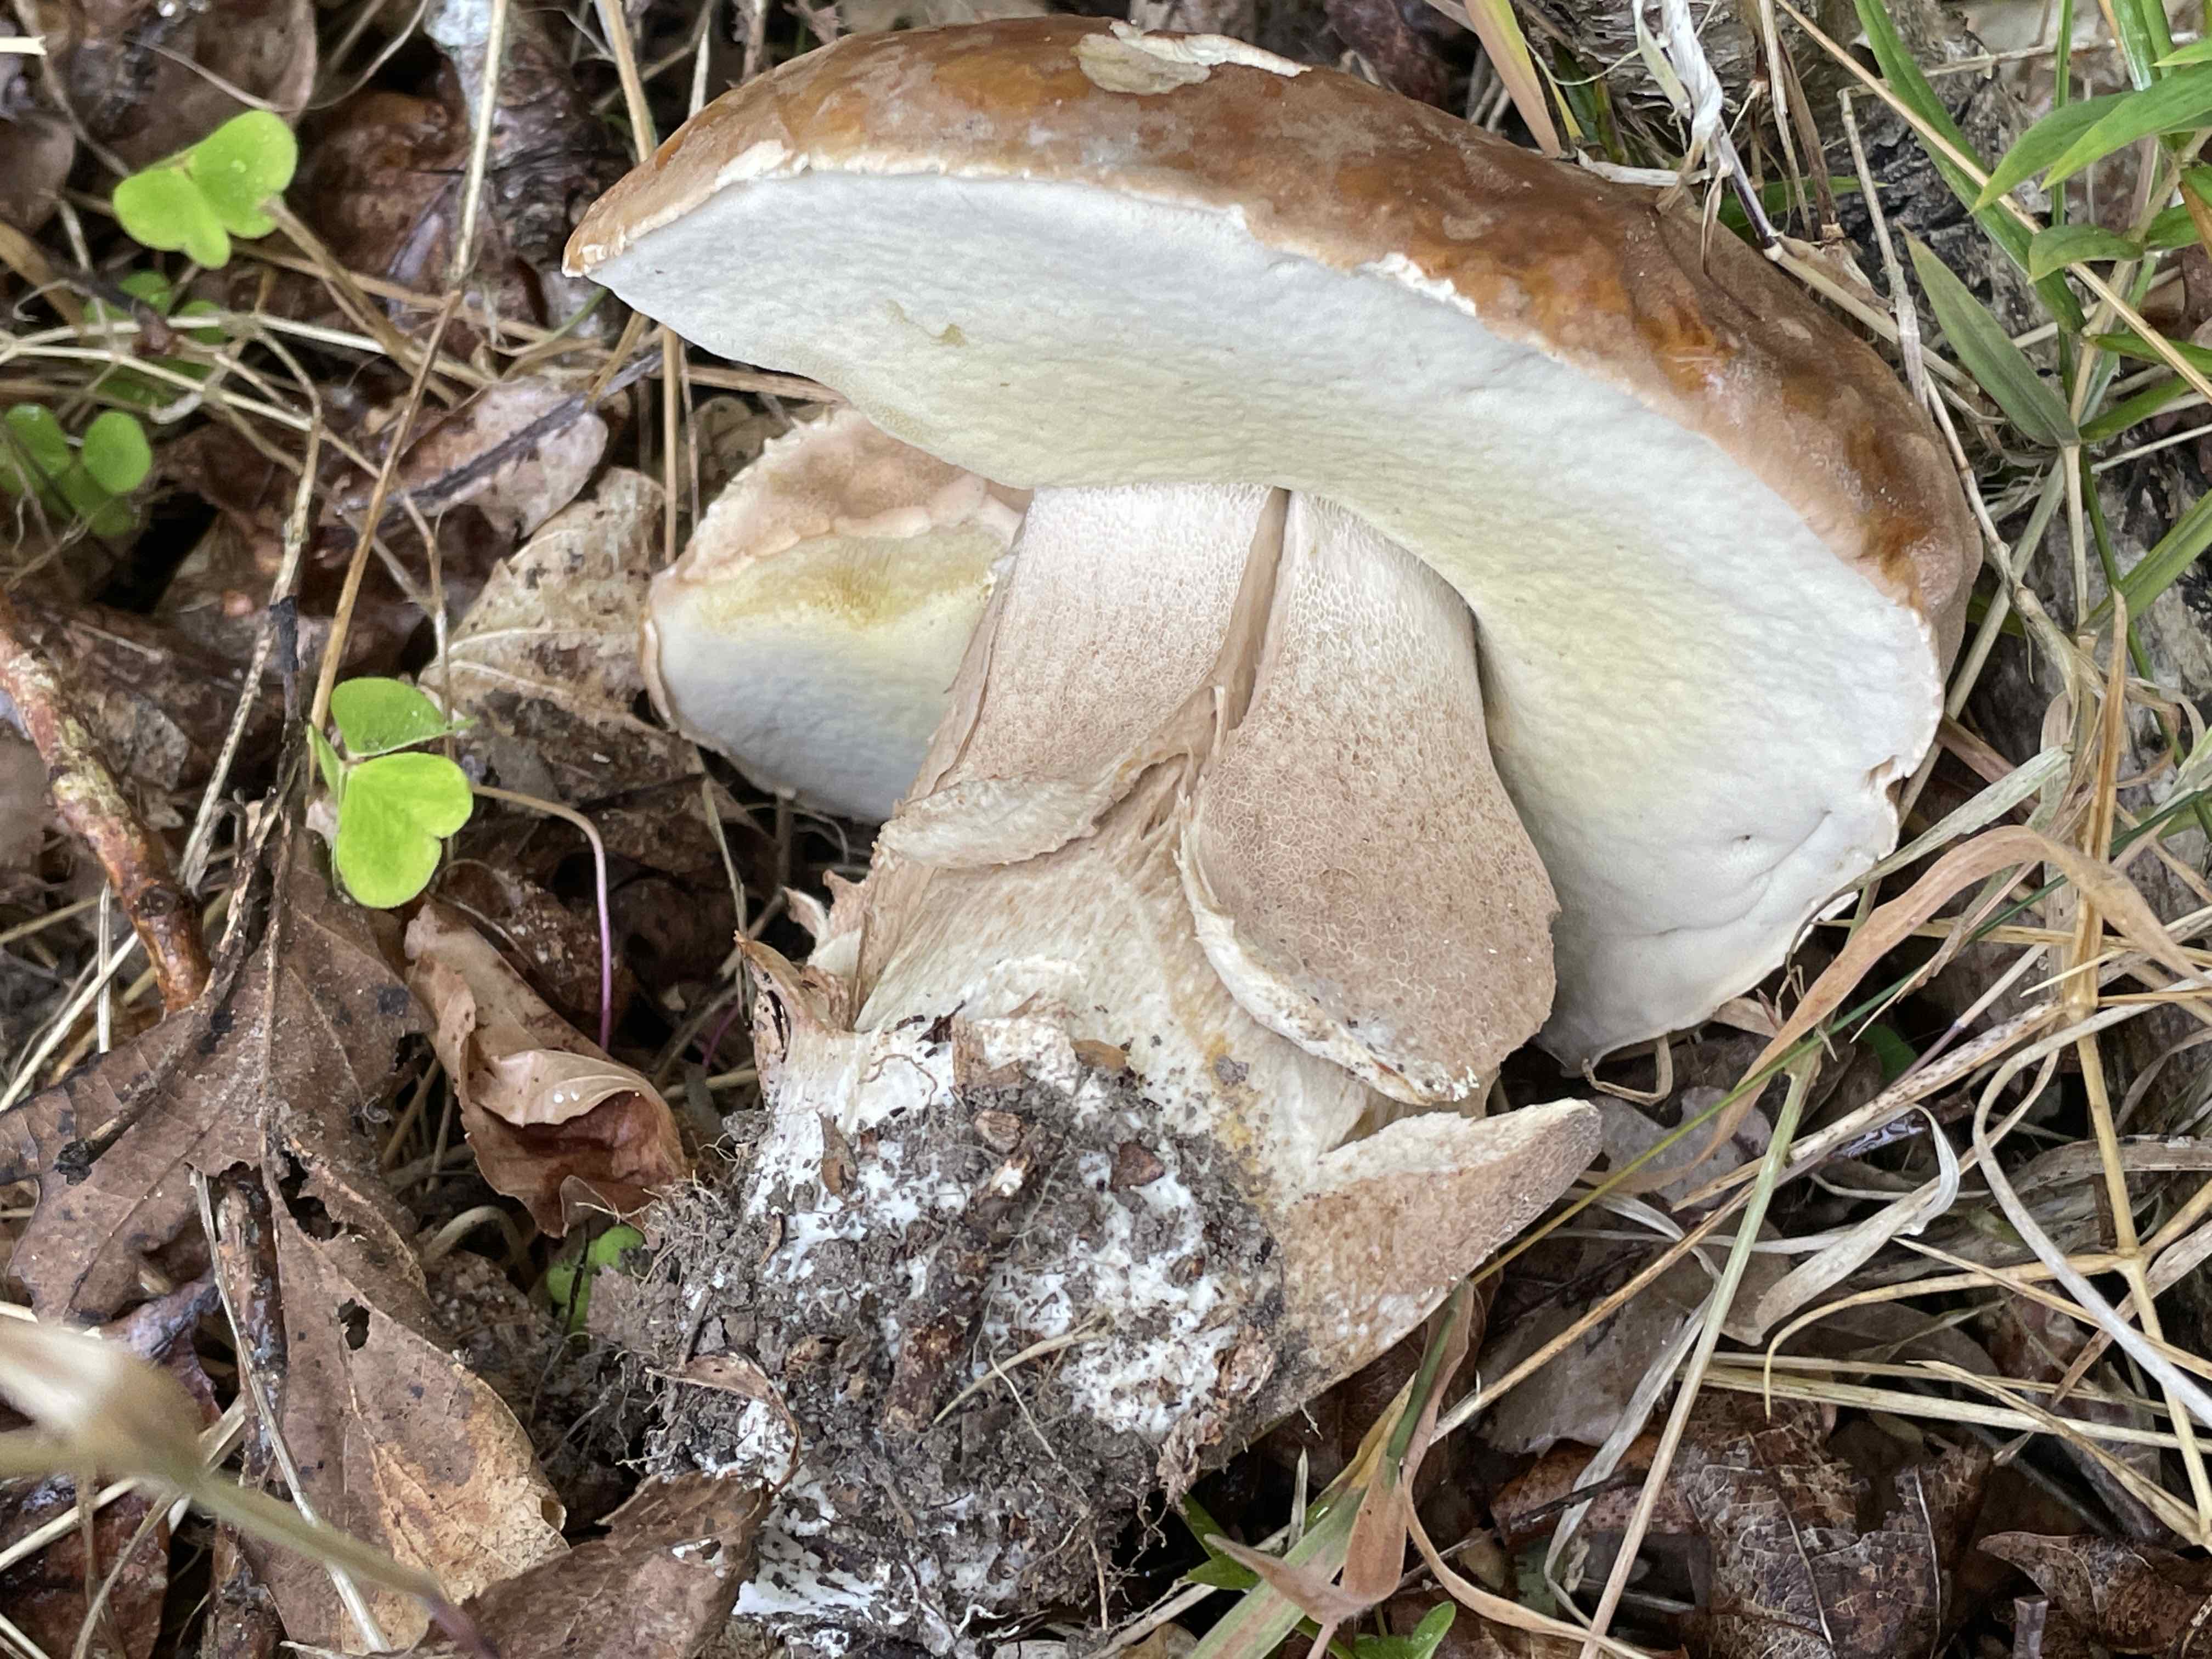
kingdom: Fungi
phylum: Basidiomycota
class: Agaricomycetes
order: Boletales
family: Boletaceae
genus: Boletus
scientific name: Boletus edulis
